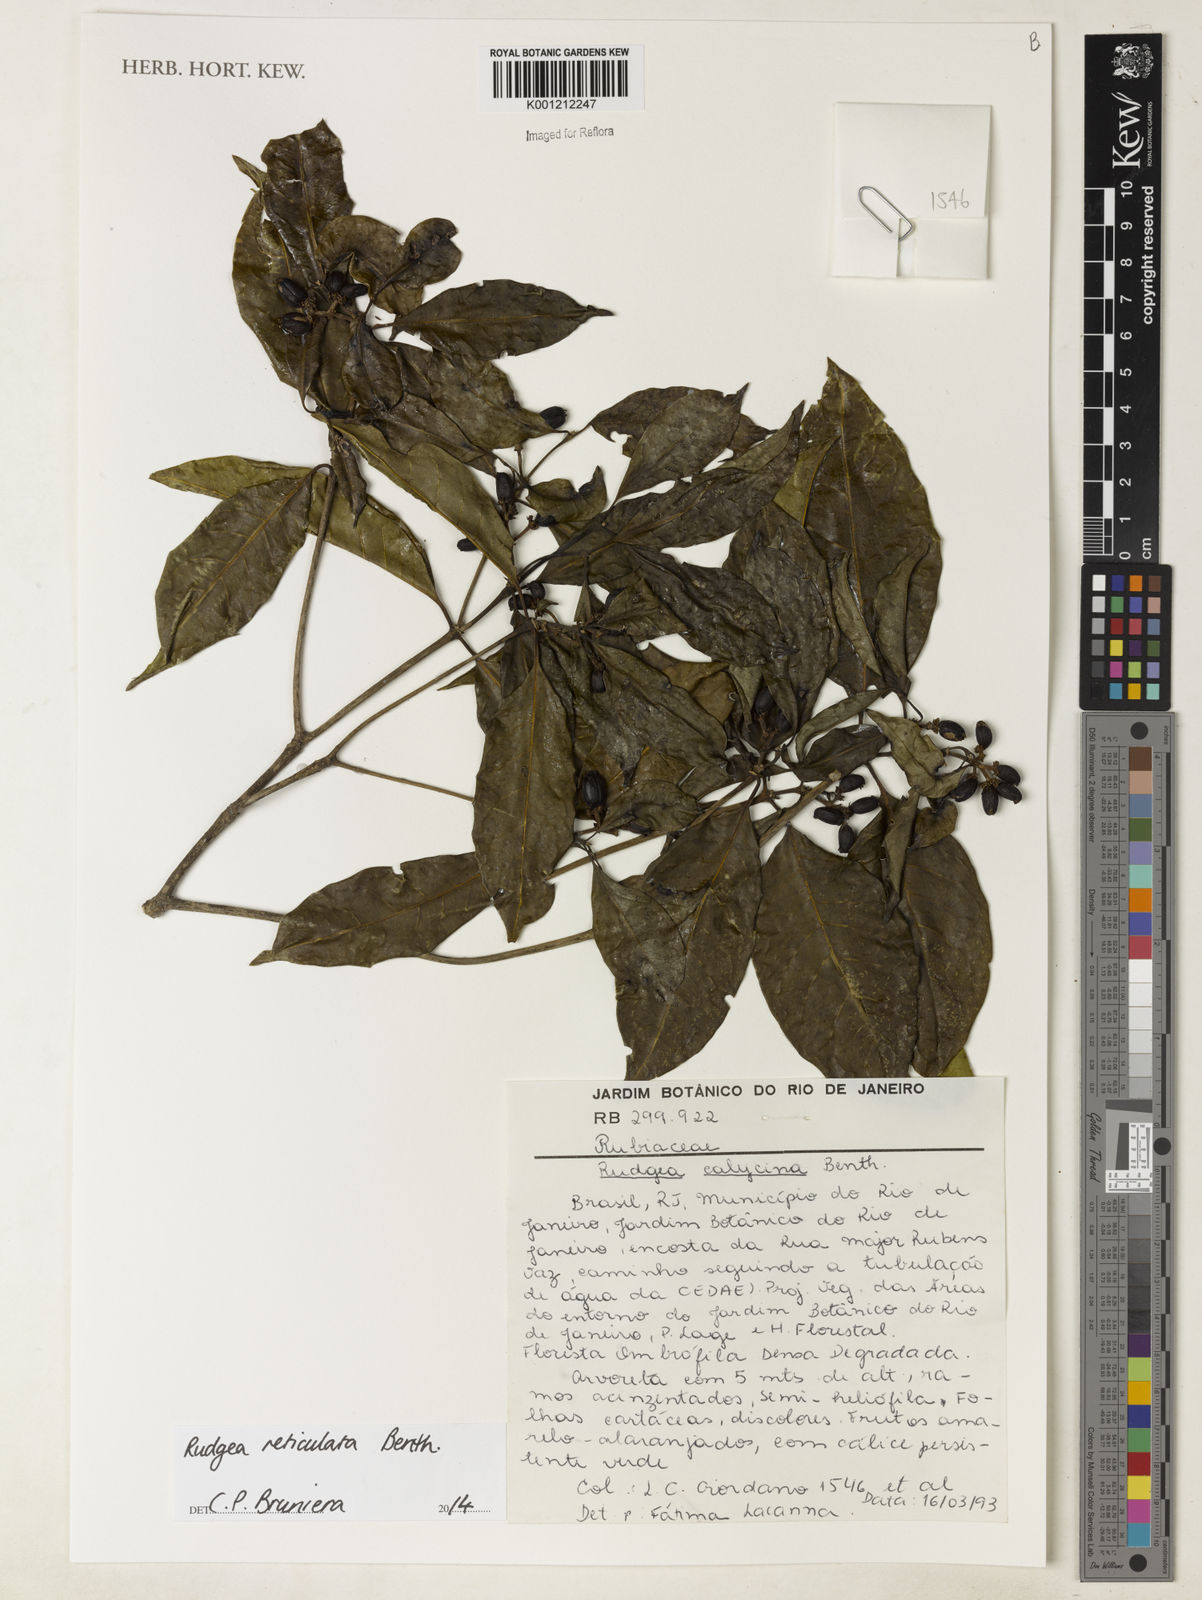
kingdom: Plantae
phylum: Tracheophyta
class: Magnoliopsida
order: Gentianales
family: Rubiaceae
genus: Rudgea
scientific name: Rudgea reticulata
